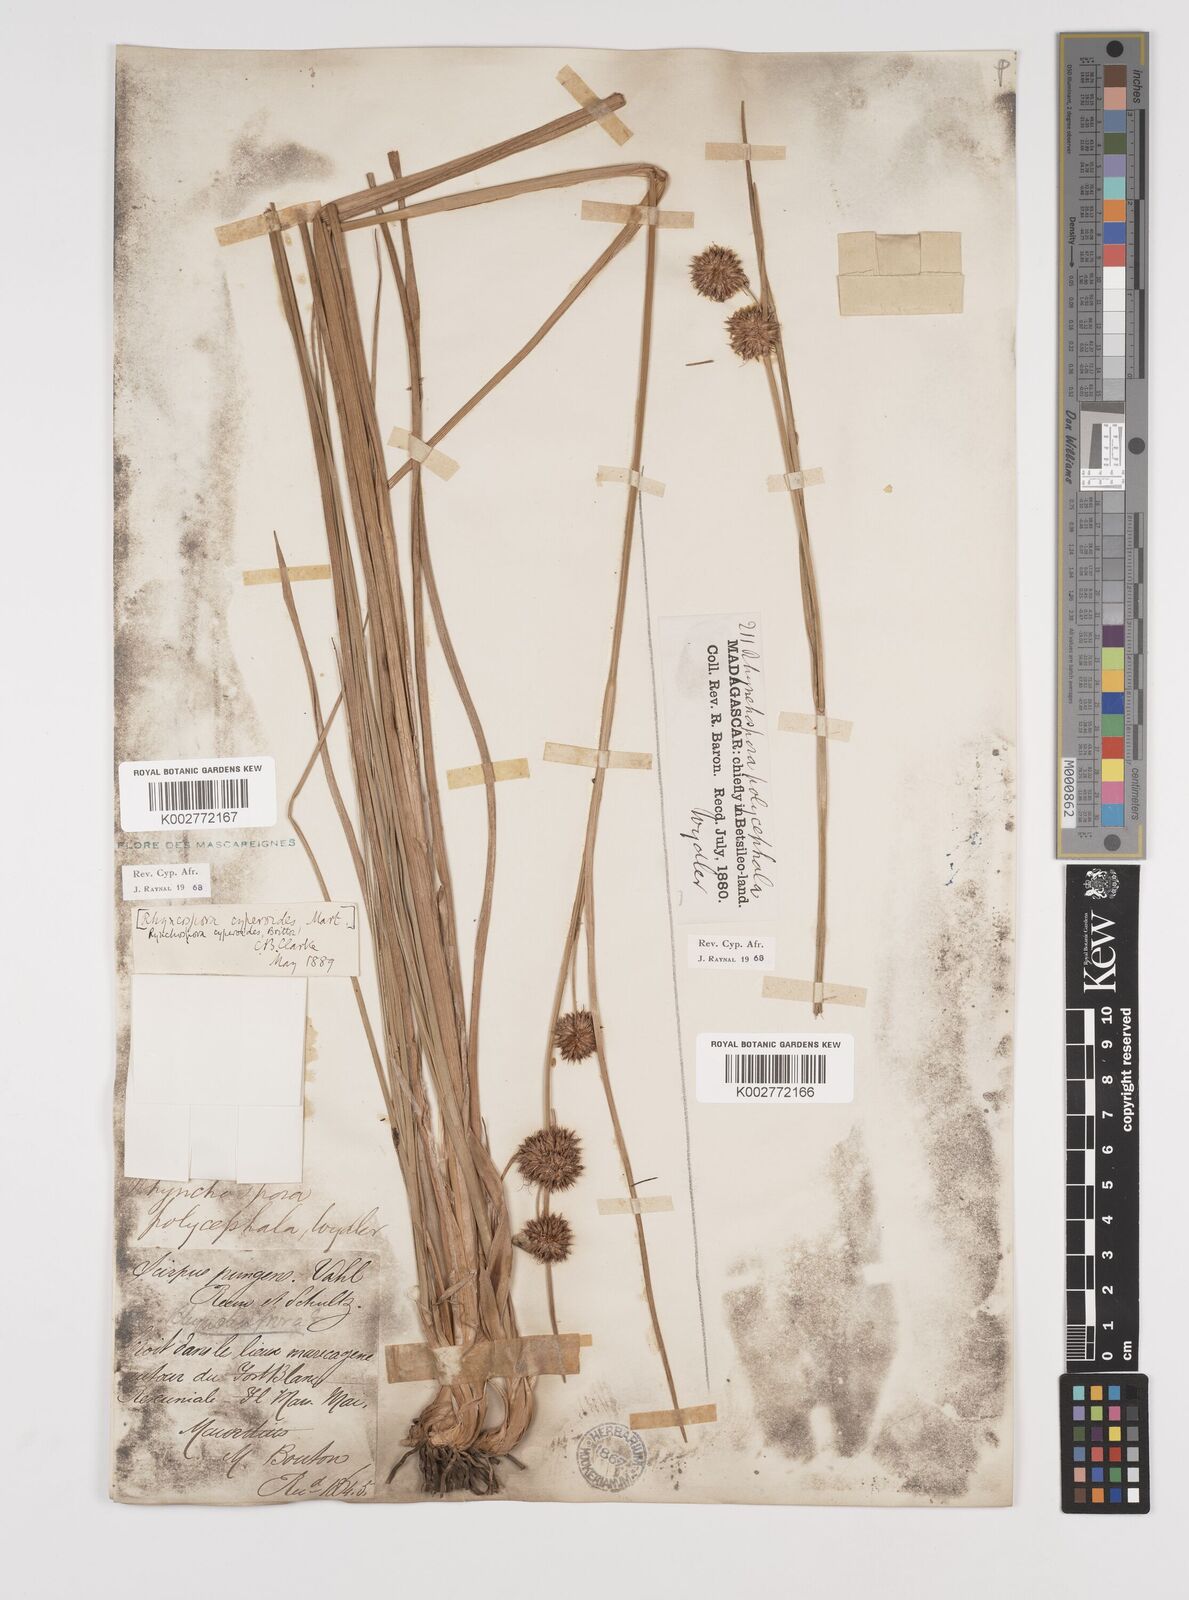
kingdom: Plantae
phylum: Tracheophyta
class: Liliopsida
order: Poales
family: Cyperaceae
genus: Rhynchospora
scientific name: Rhynchospora holoschoenoides
